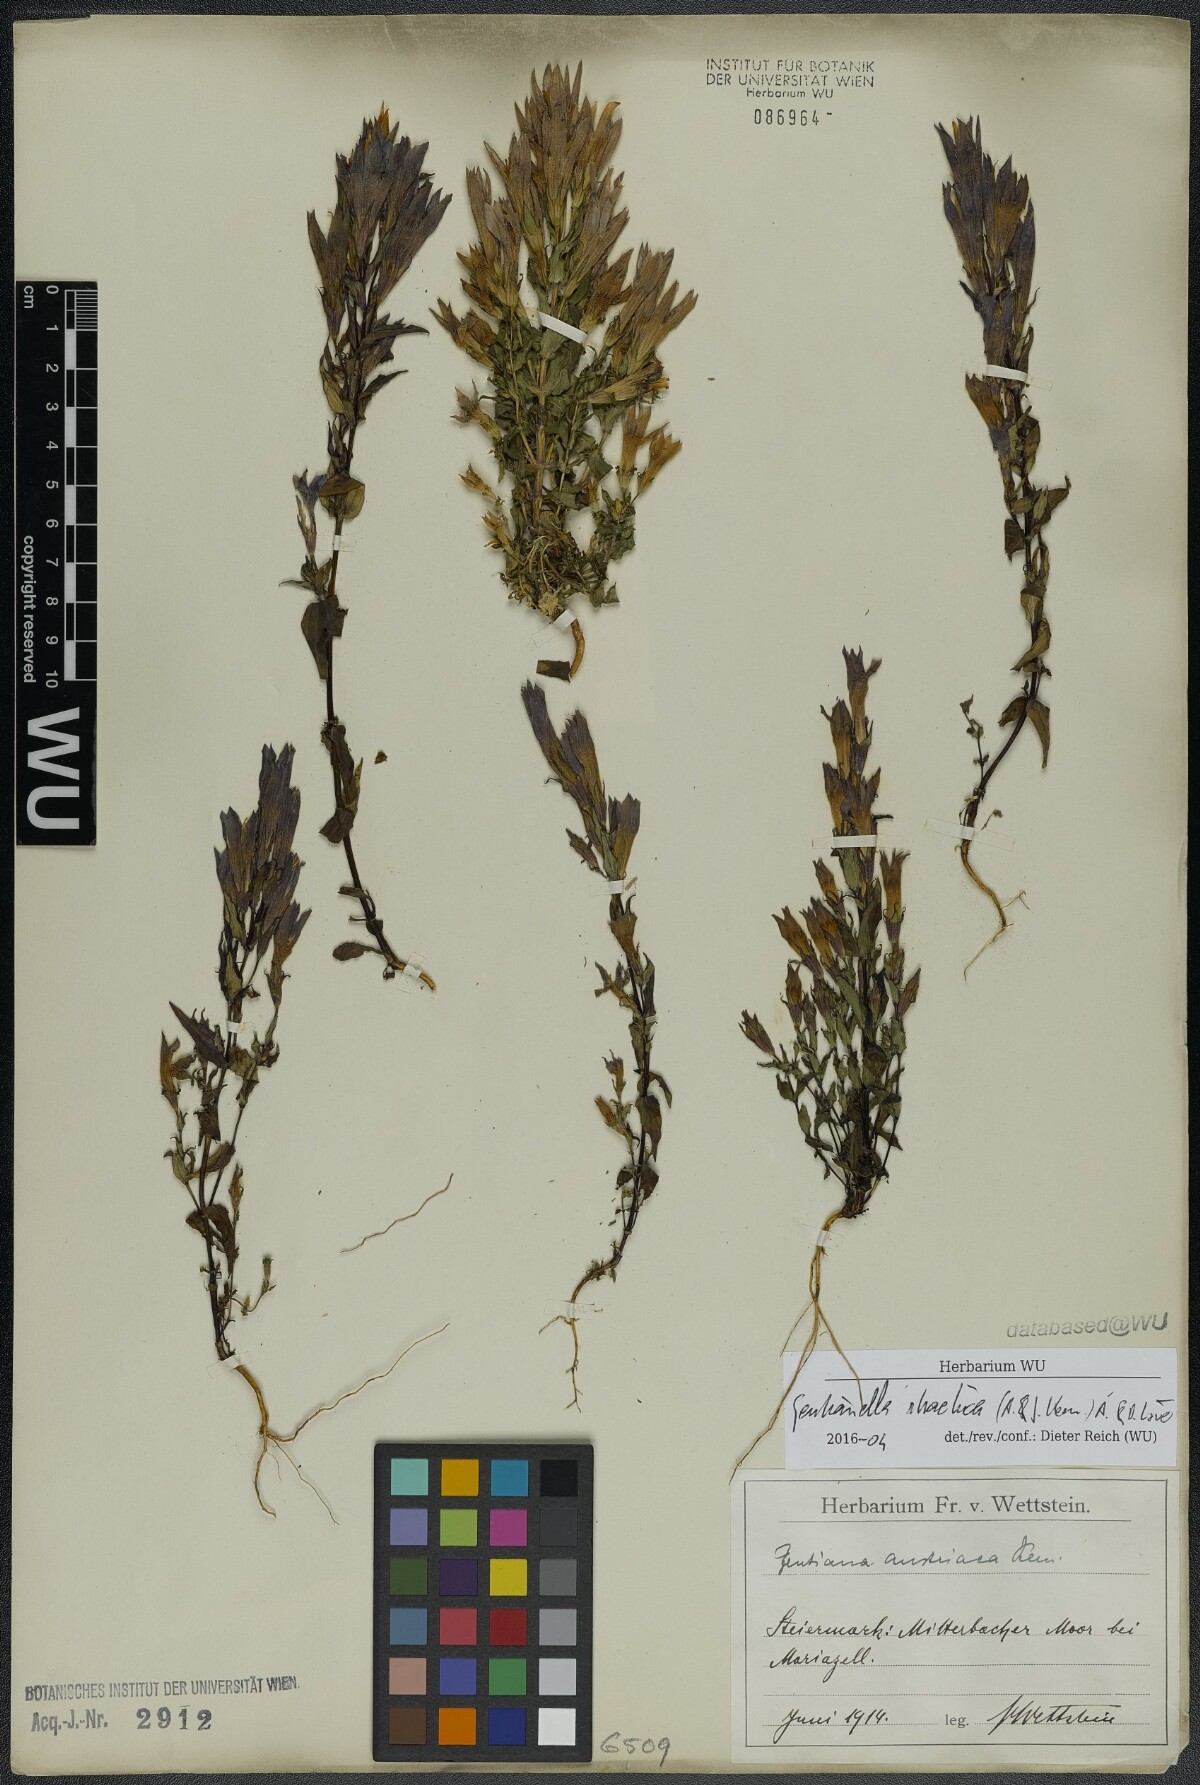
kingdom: Plantae
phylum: Tracheophyta
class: Magnoliopsida
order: Gentianales
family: Gentianaceae
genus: Gentianella
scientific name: Gentianella rhaetica
